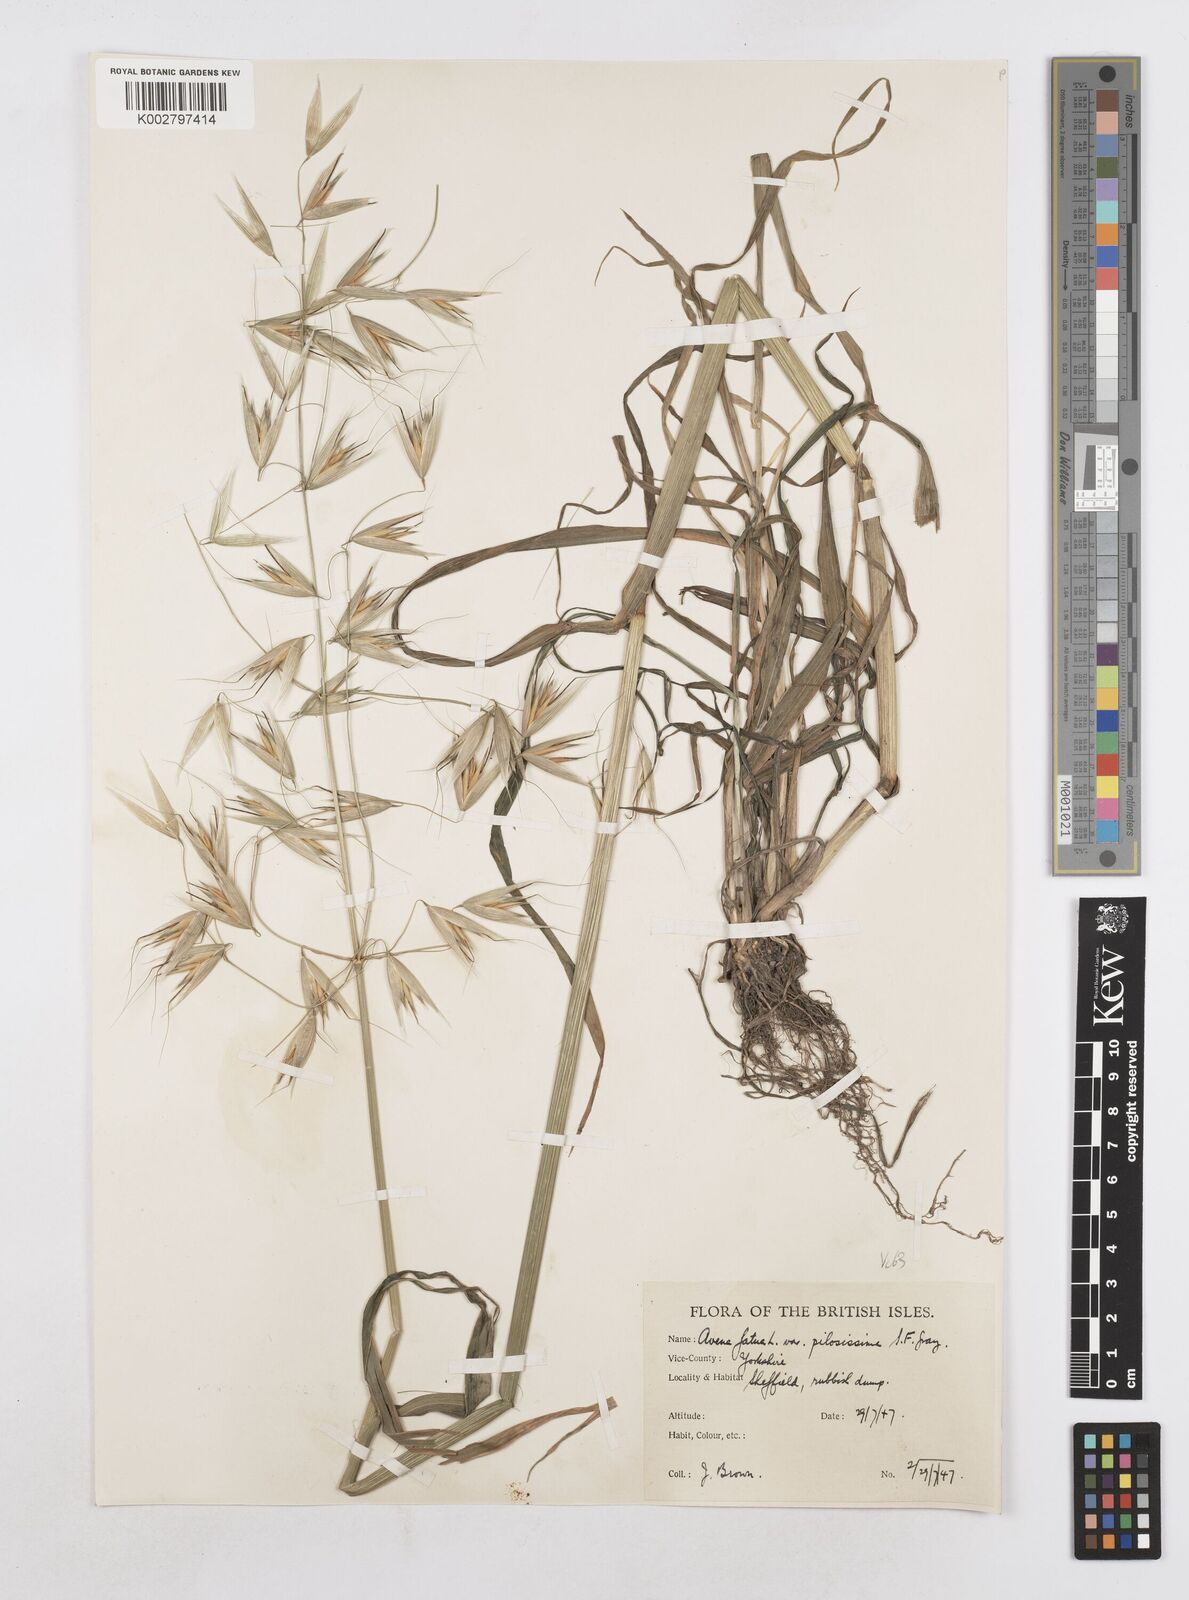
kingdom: Plantae
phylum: Tracheophyta
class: Liliopsida
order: Poales
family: Poaceae
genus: Avena
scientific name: Avena fatua
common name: Wild oat
